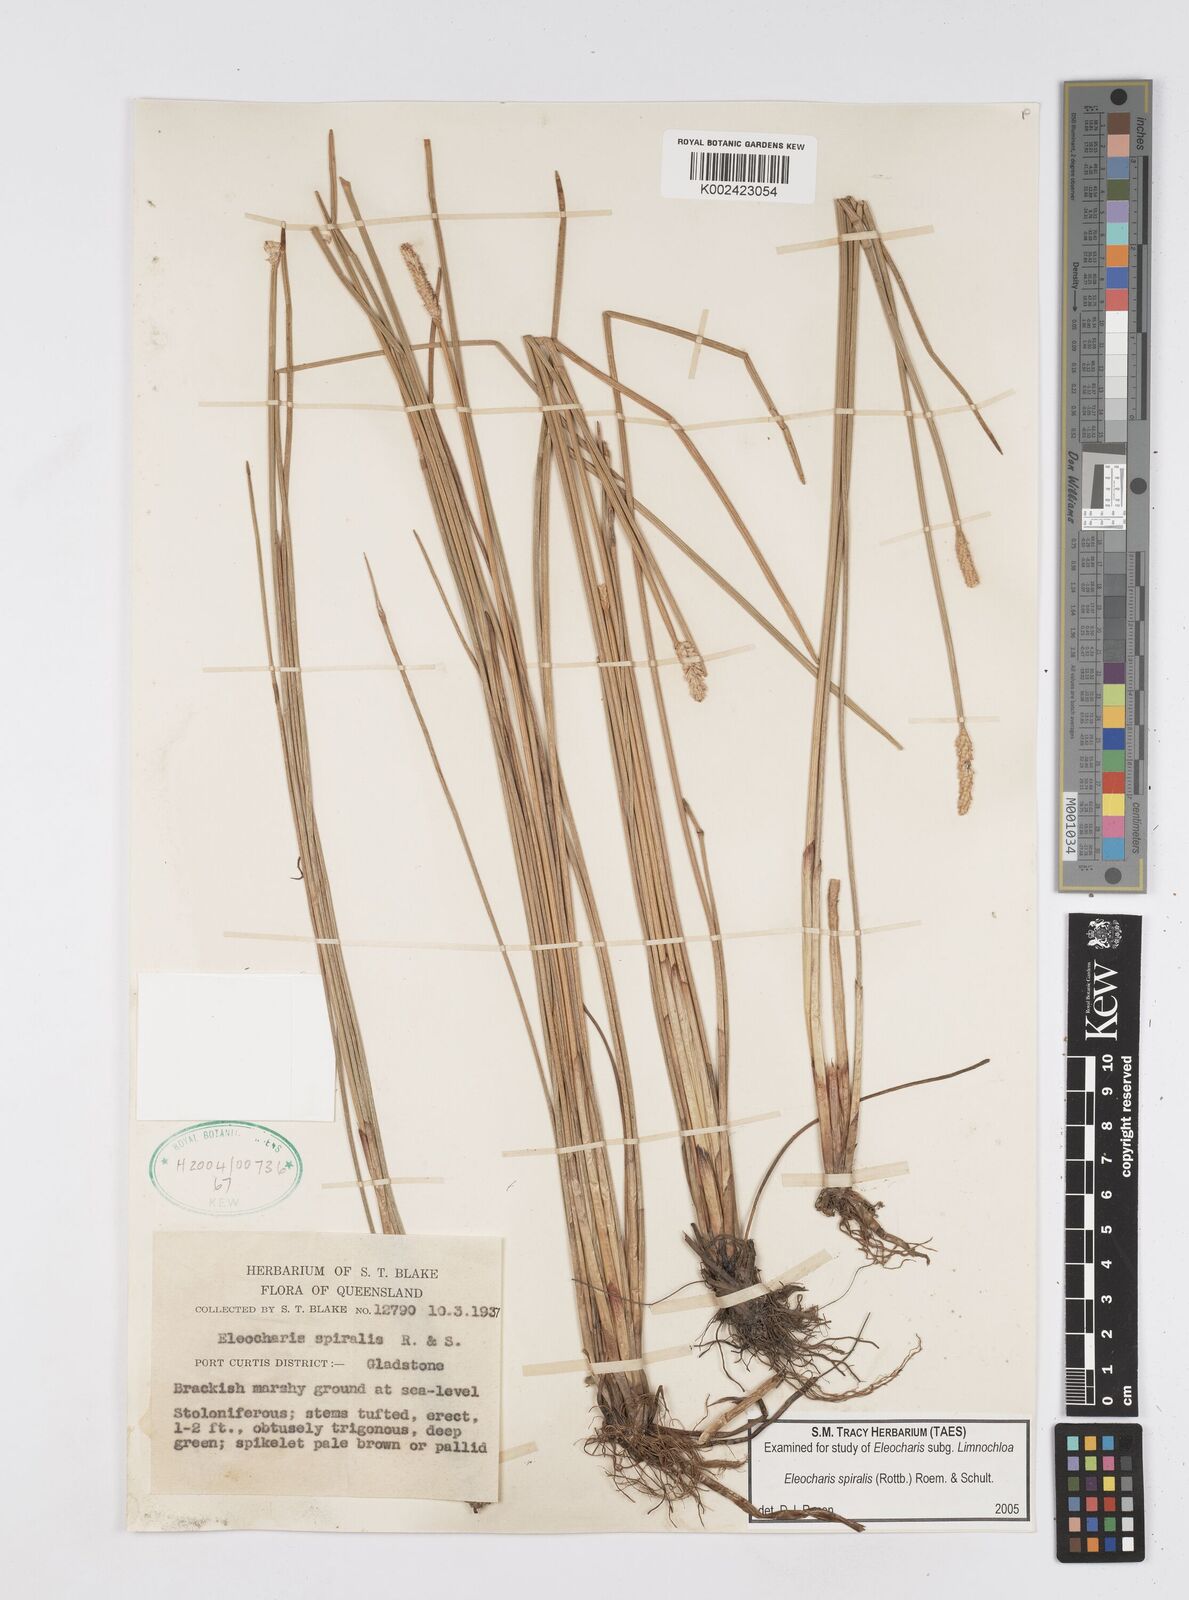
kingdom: Plantae
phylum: Tracheophyta
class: Liliopsida
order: Poales
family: Cyperaceae
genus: Eleocharis
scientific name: Eleocharis spiralis
